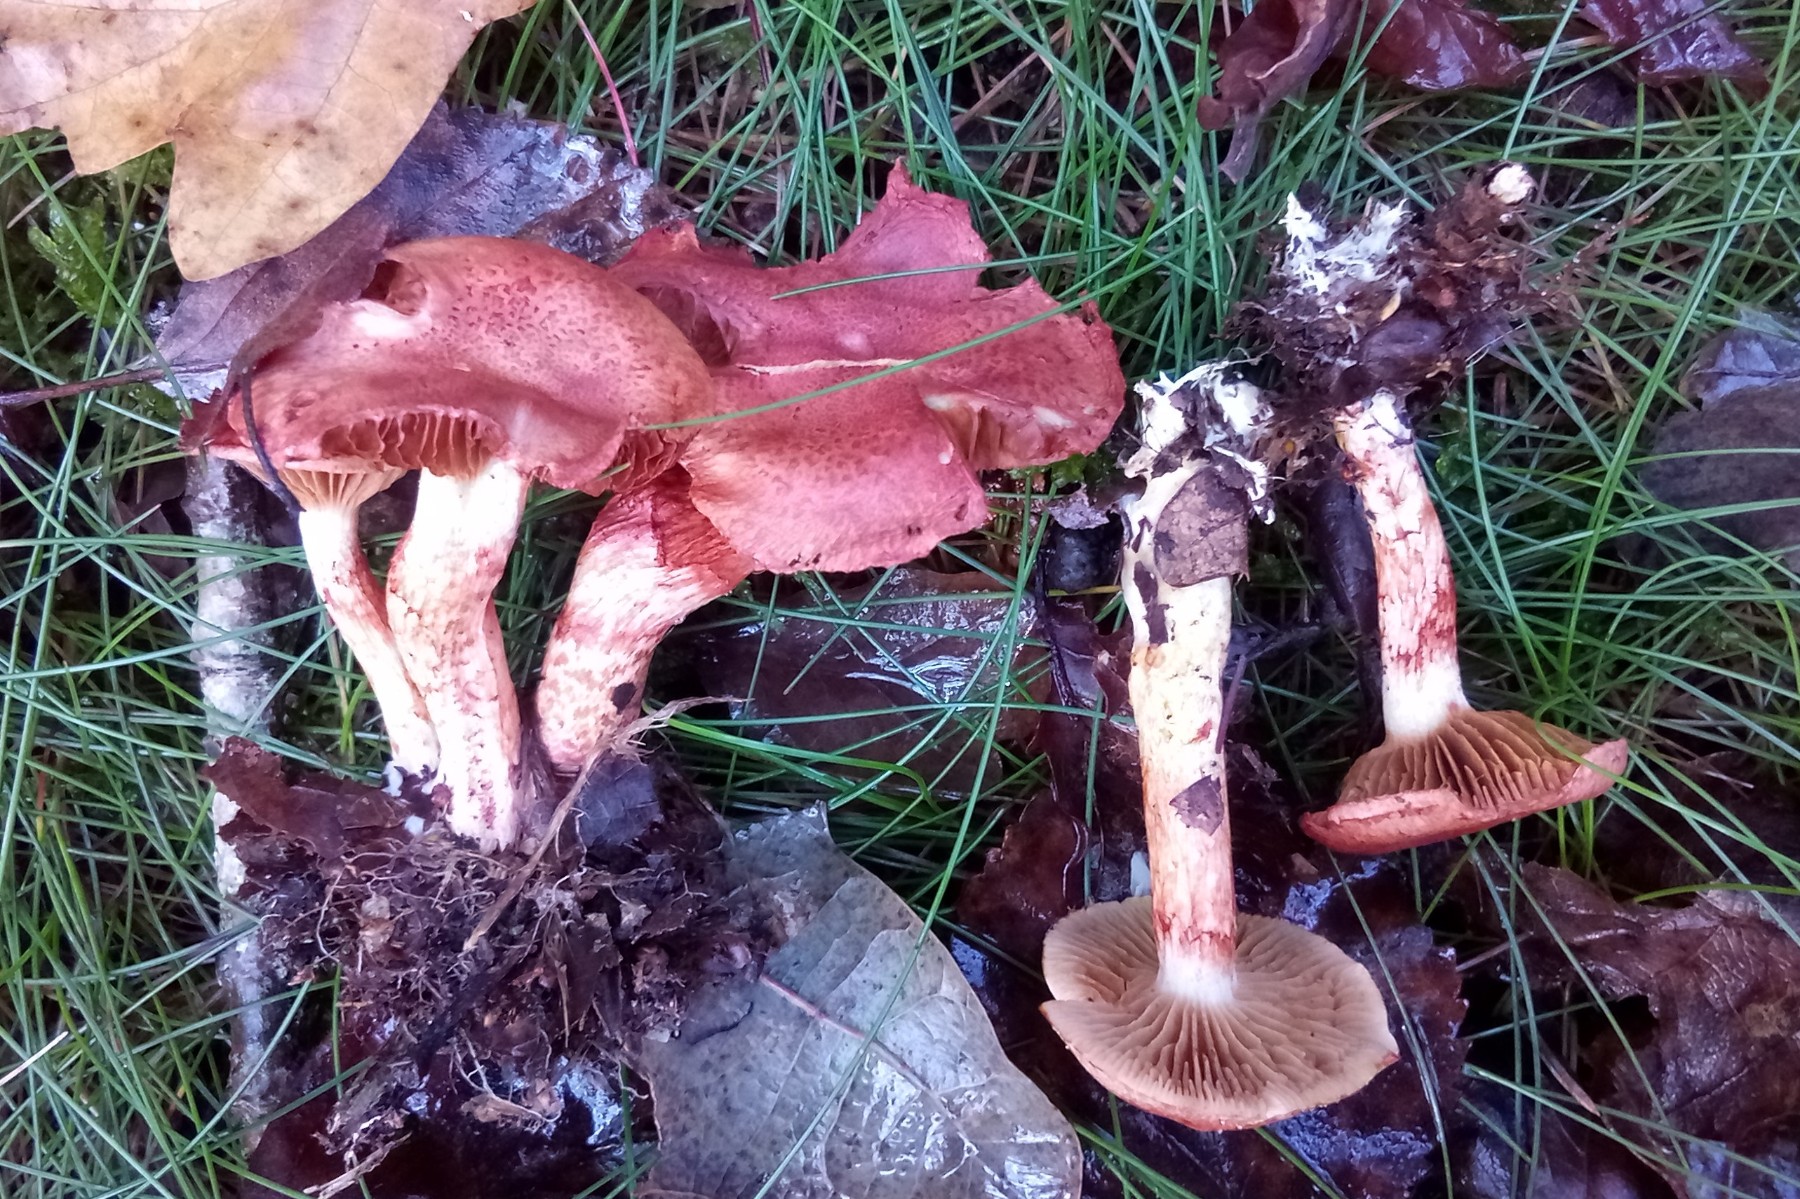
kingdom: Fungi
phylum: Basidiomycota
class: Agaricomycetes
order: Agaricales
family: Cortinariaceae
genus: Cortinarius
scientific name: Cortinarius bolaris
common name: cinnoberskællet slørhat
